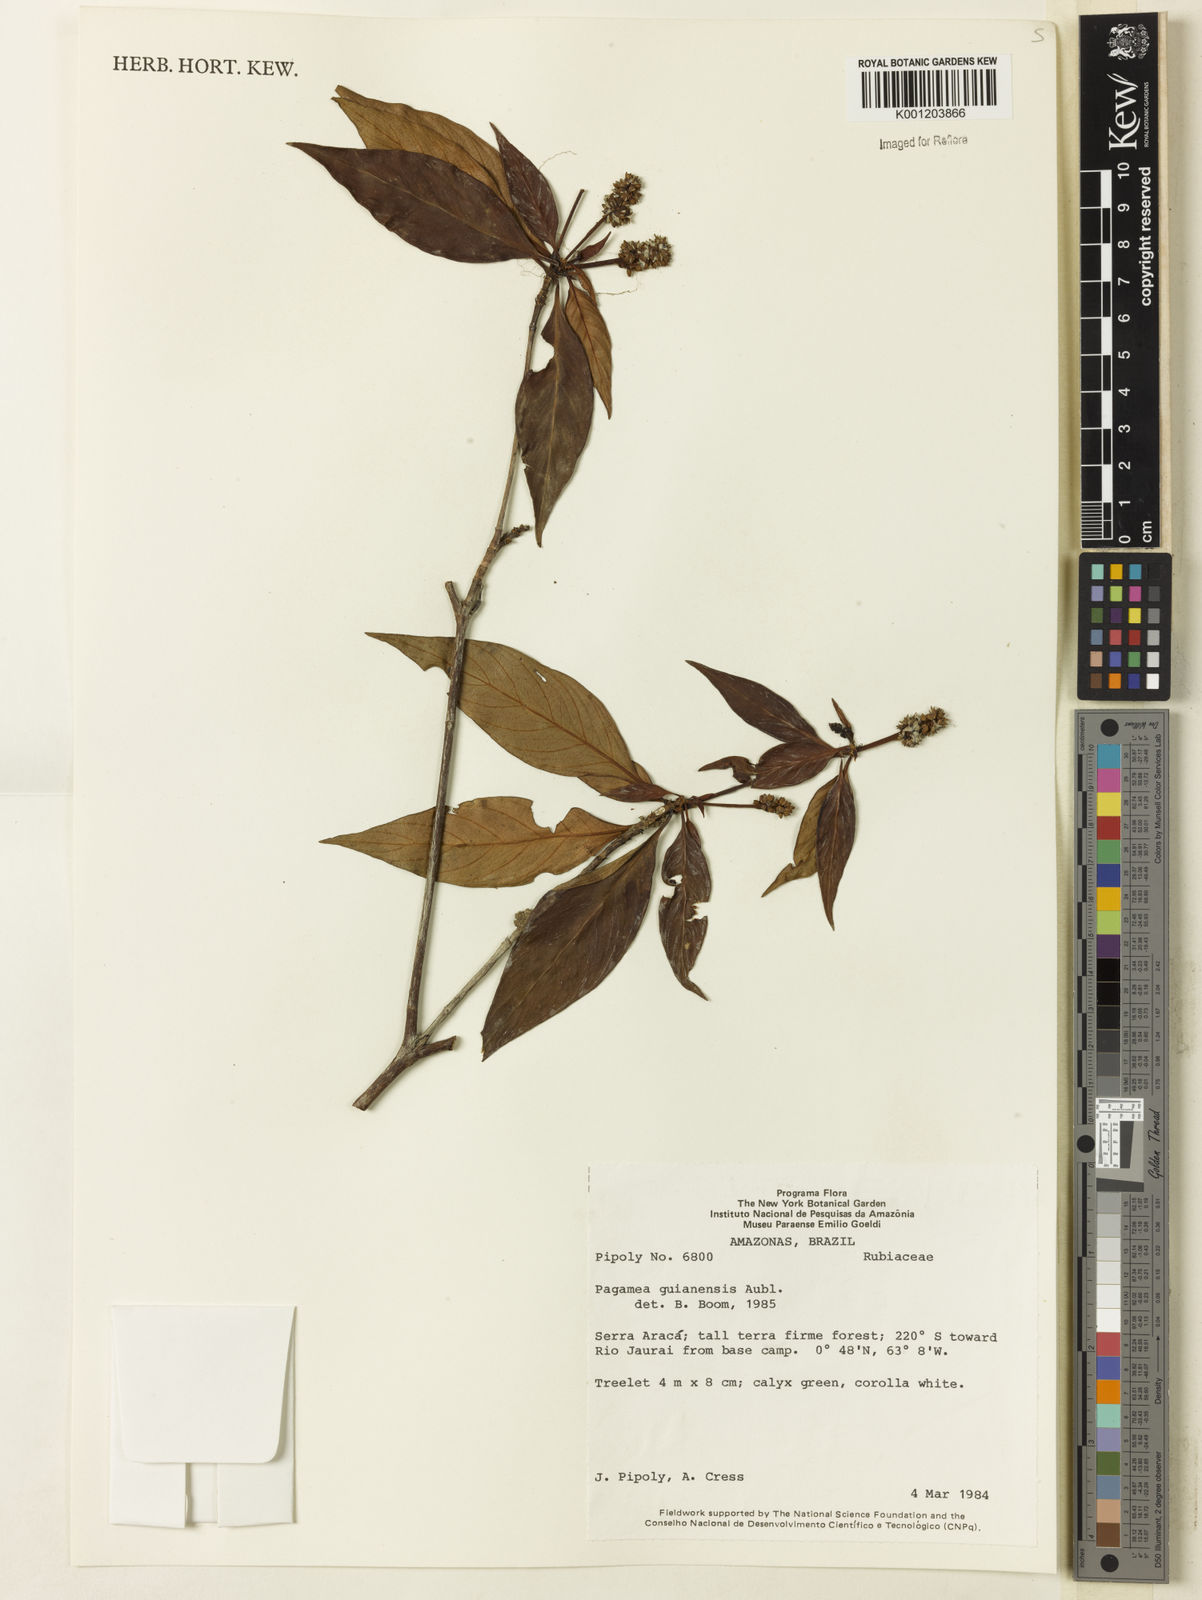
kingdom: Plantae
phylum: Tracheophyta
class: Magnoliopsida
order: Gentianales
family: Rubiaceae
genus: Pagamea
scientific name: Pagamea guianensis
